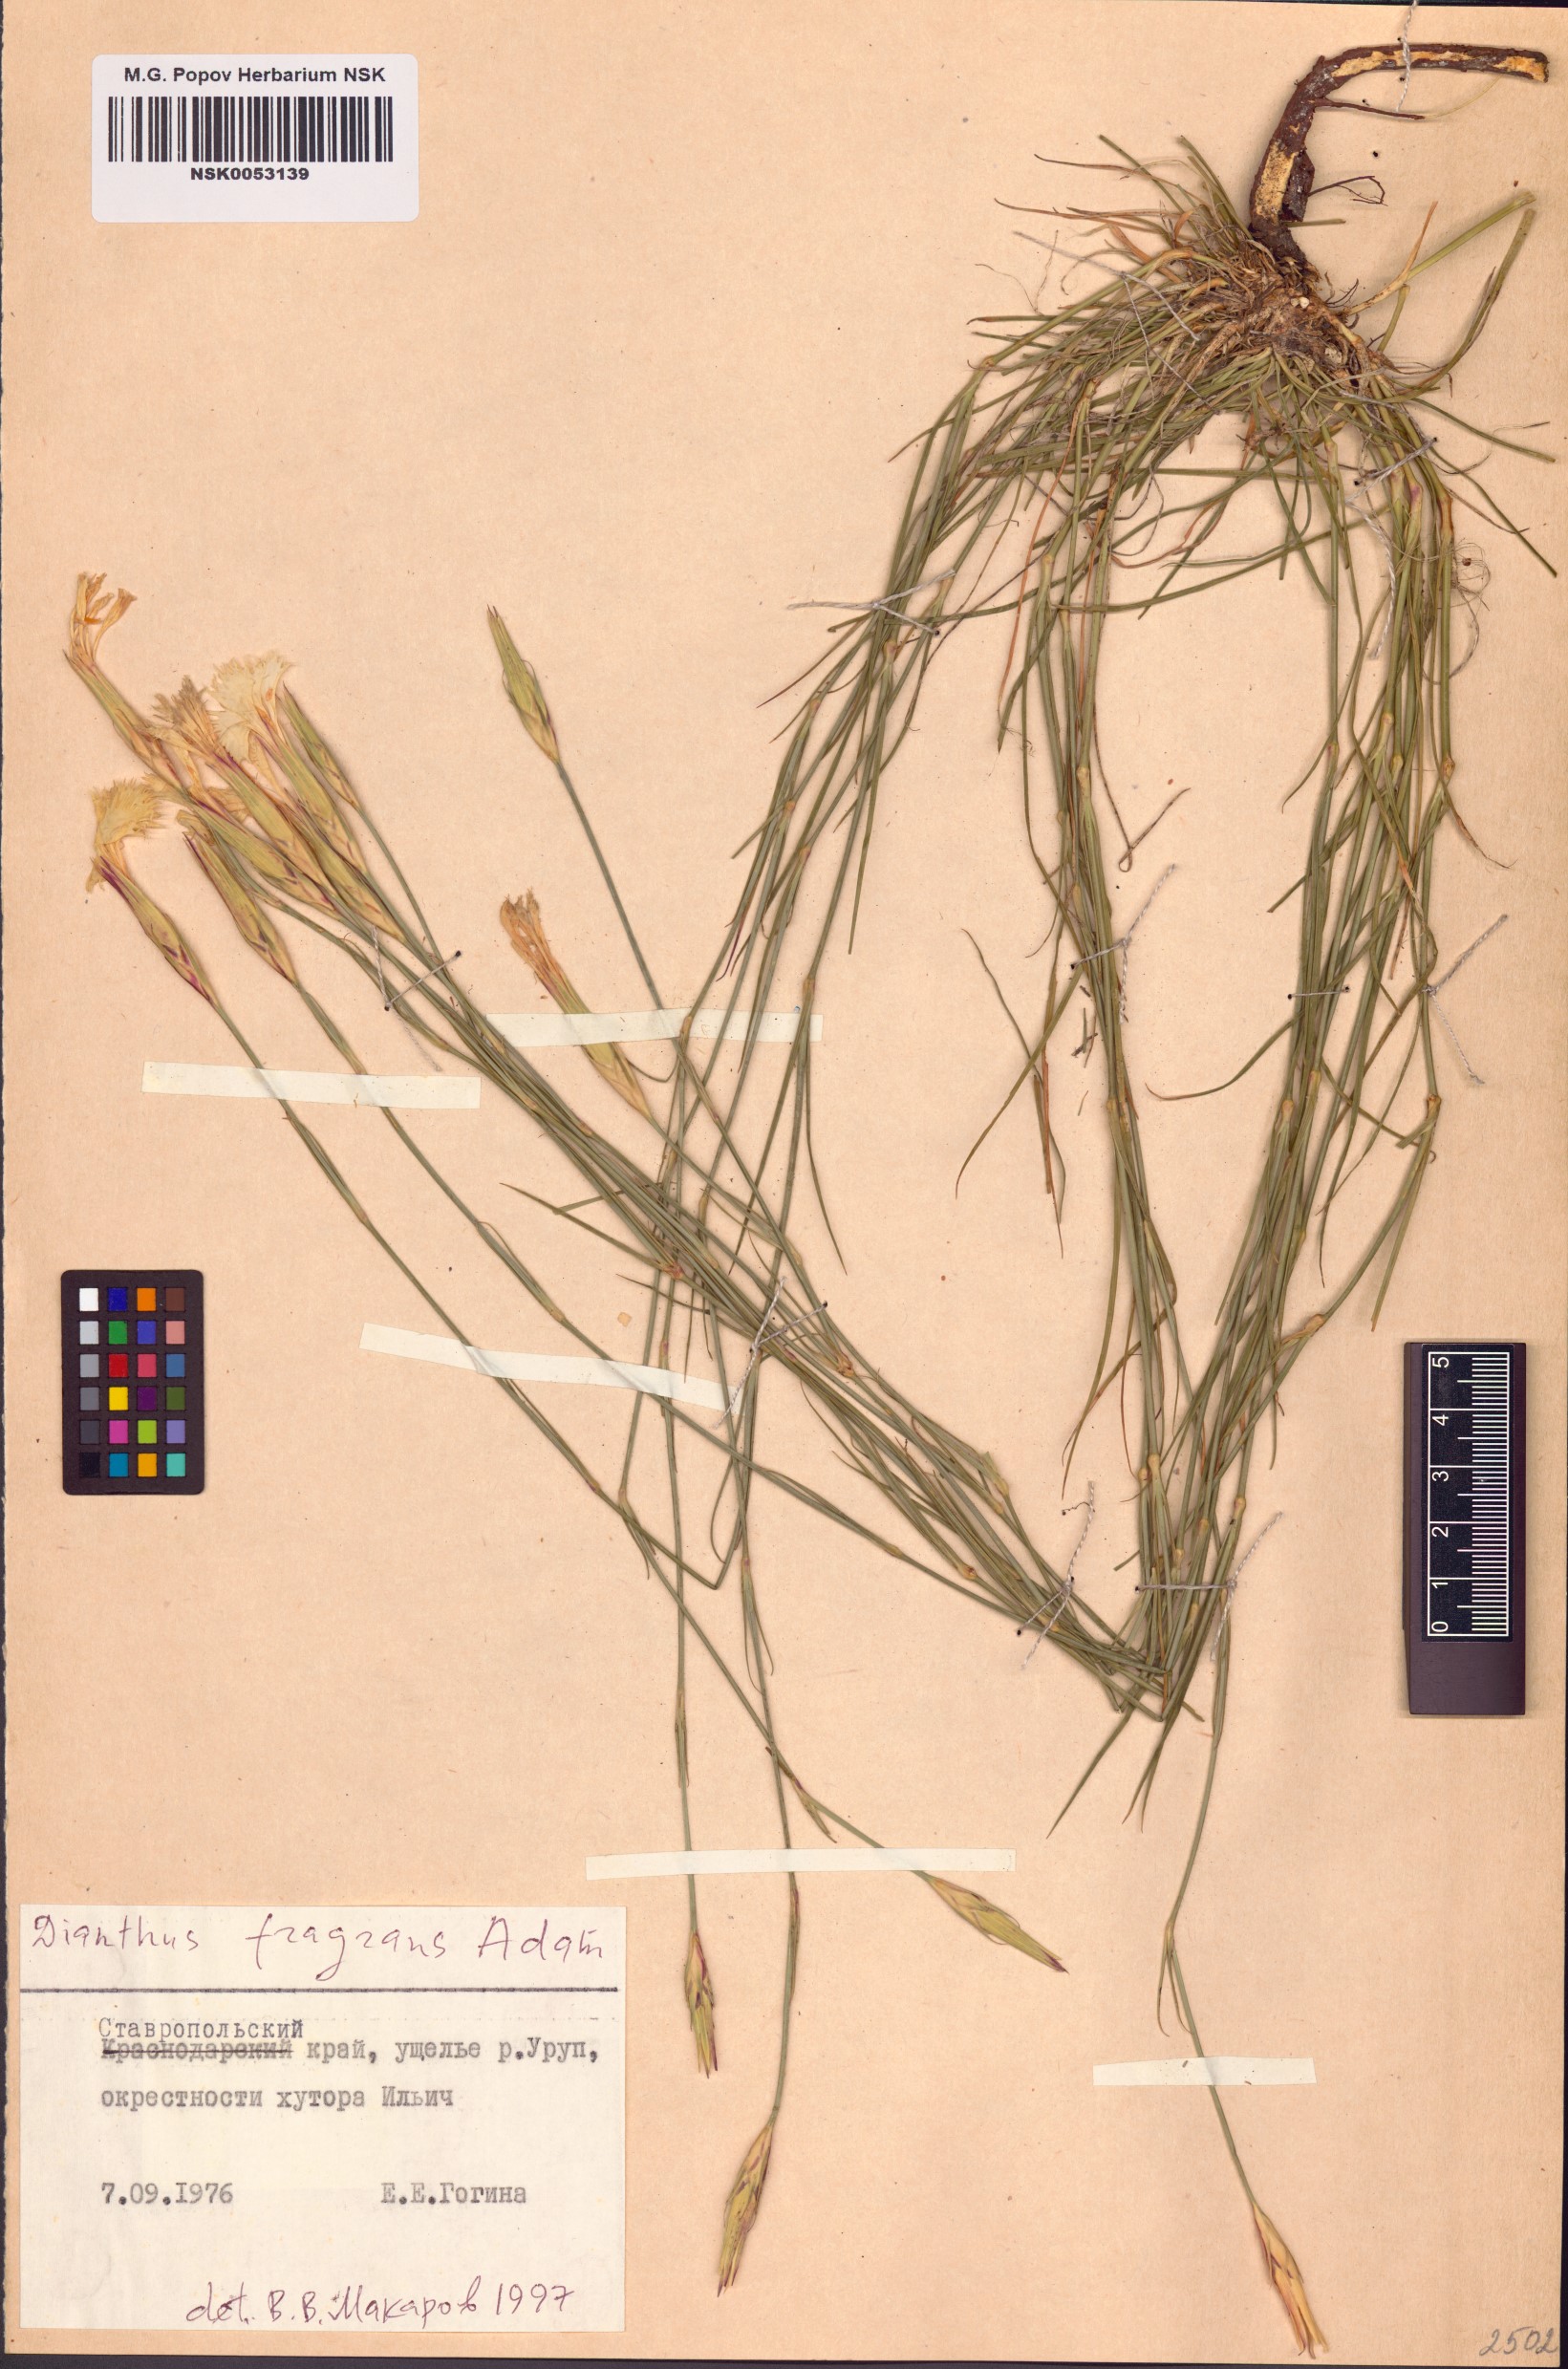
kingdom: Plantae
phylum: Tracheophyta
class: Magnoliopsida
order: Caryophyllales
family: Caryophyllaceae
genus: Dianthus
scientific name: Dianthus fragrans
